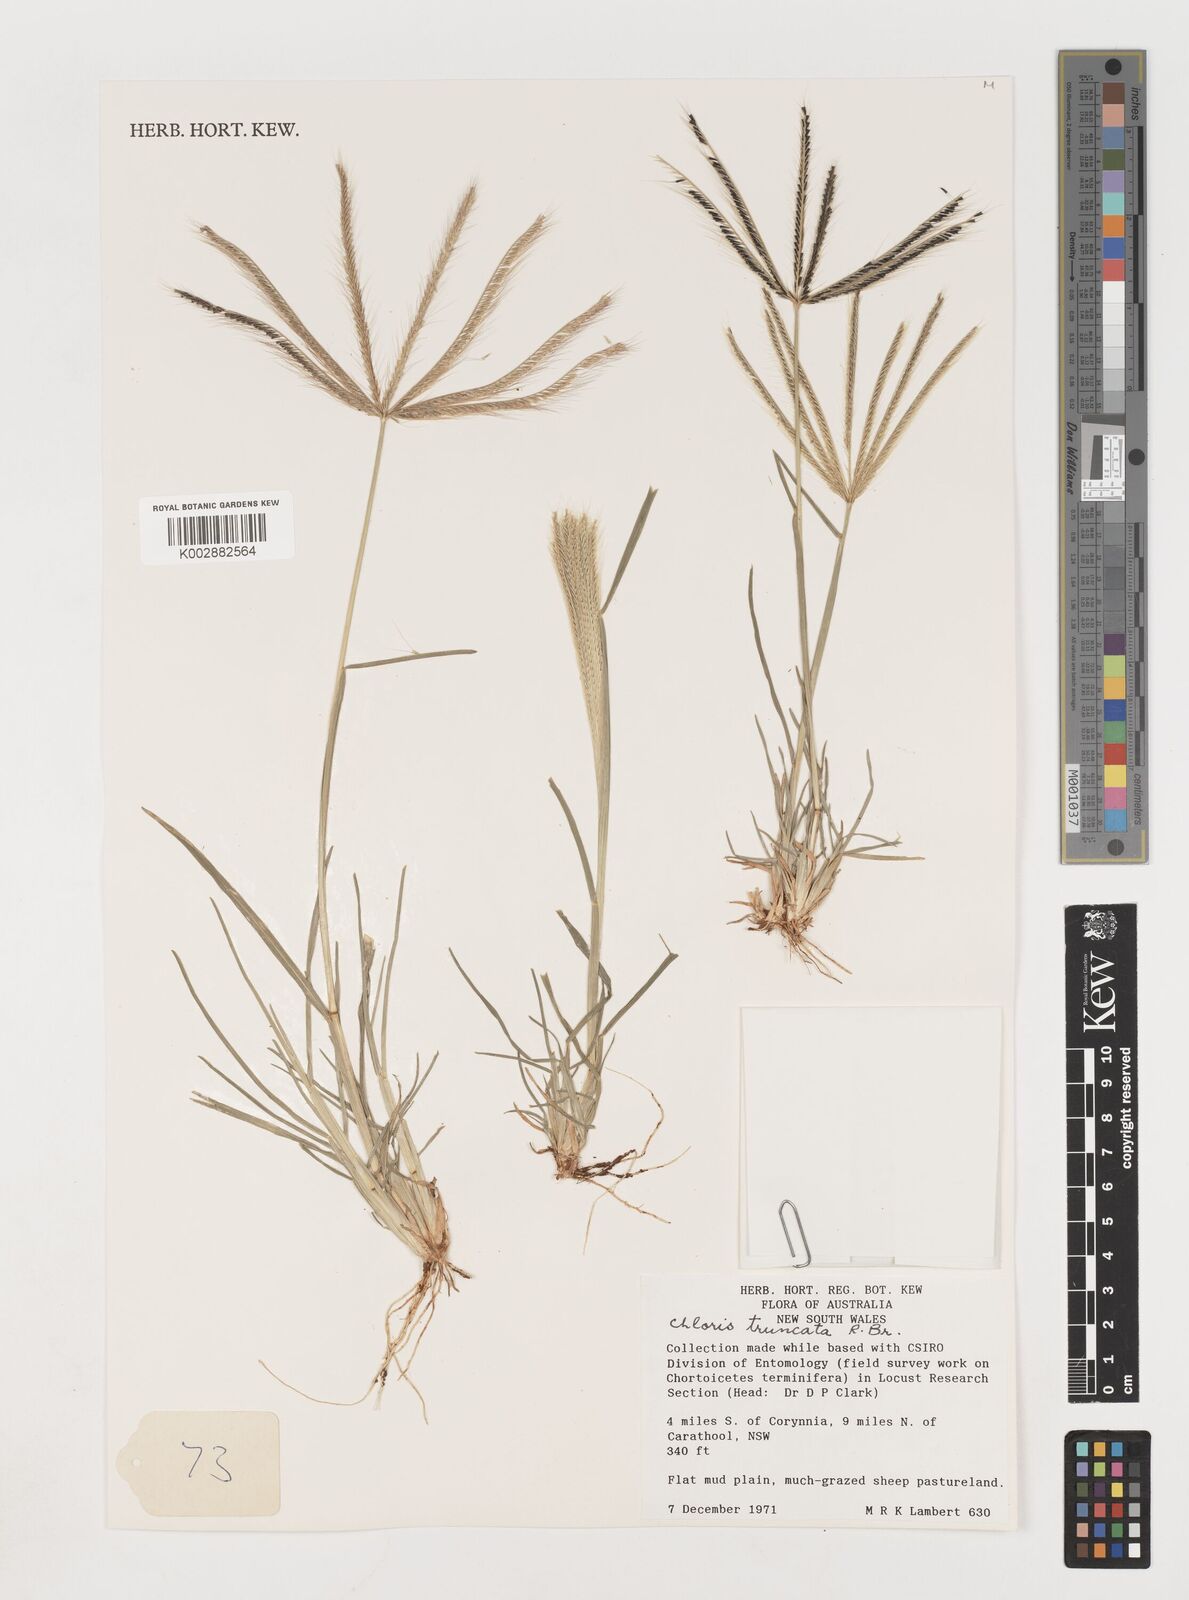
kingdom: Plantae
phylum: Tracheophyta
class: Liliopsida
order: Poales
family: Poaceae
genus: Chloris
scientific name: Chloris truncata
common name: Windmill-grass
